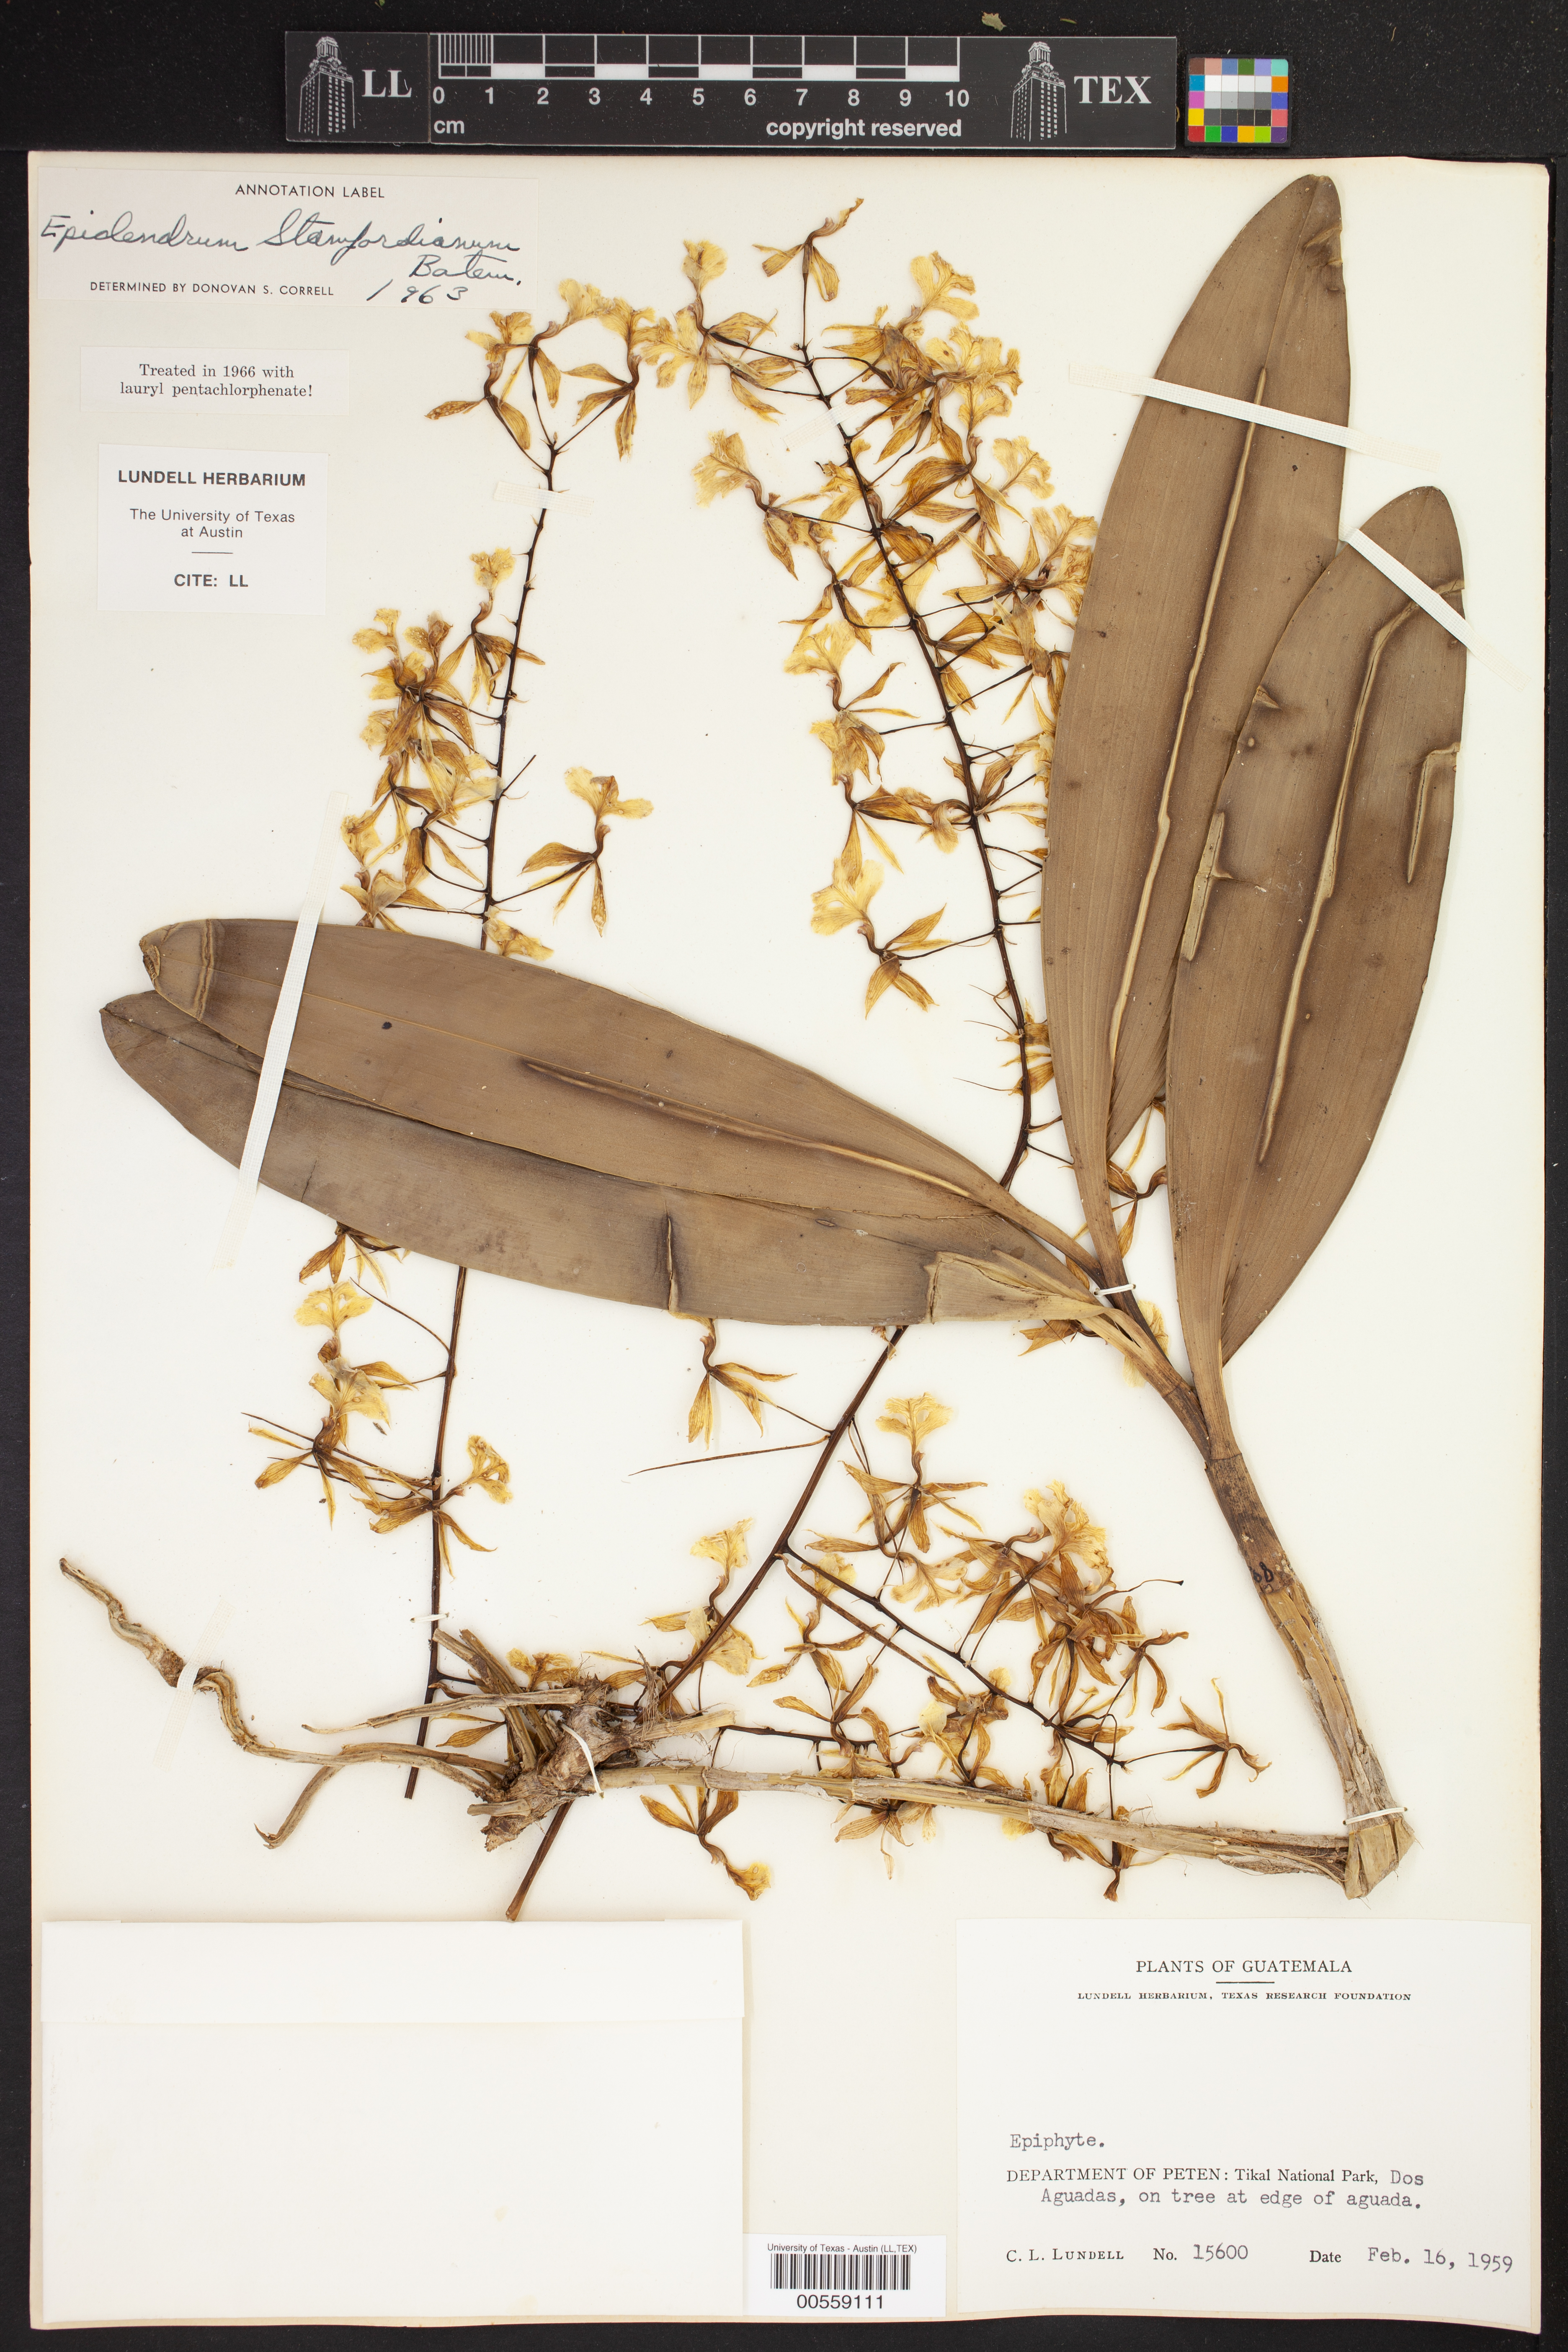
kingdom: Plantae
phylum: Tracheophyta
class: Liliopsida
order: Asparagales
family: Orchidaceae
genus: Epidendrum
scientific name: Epidendrum stamfordianum
